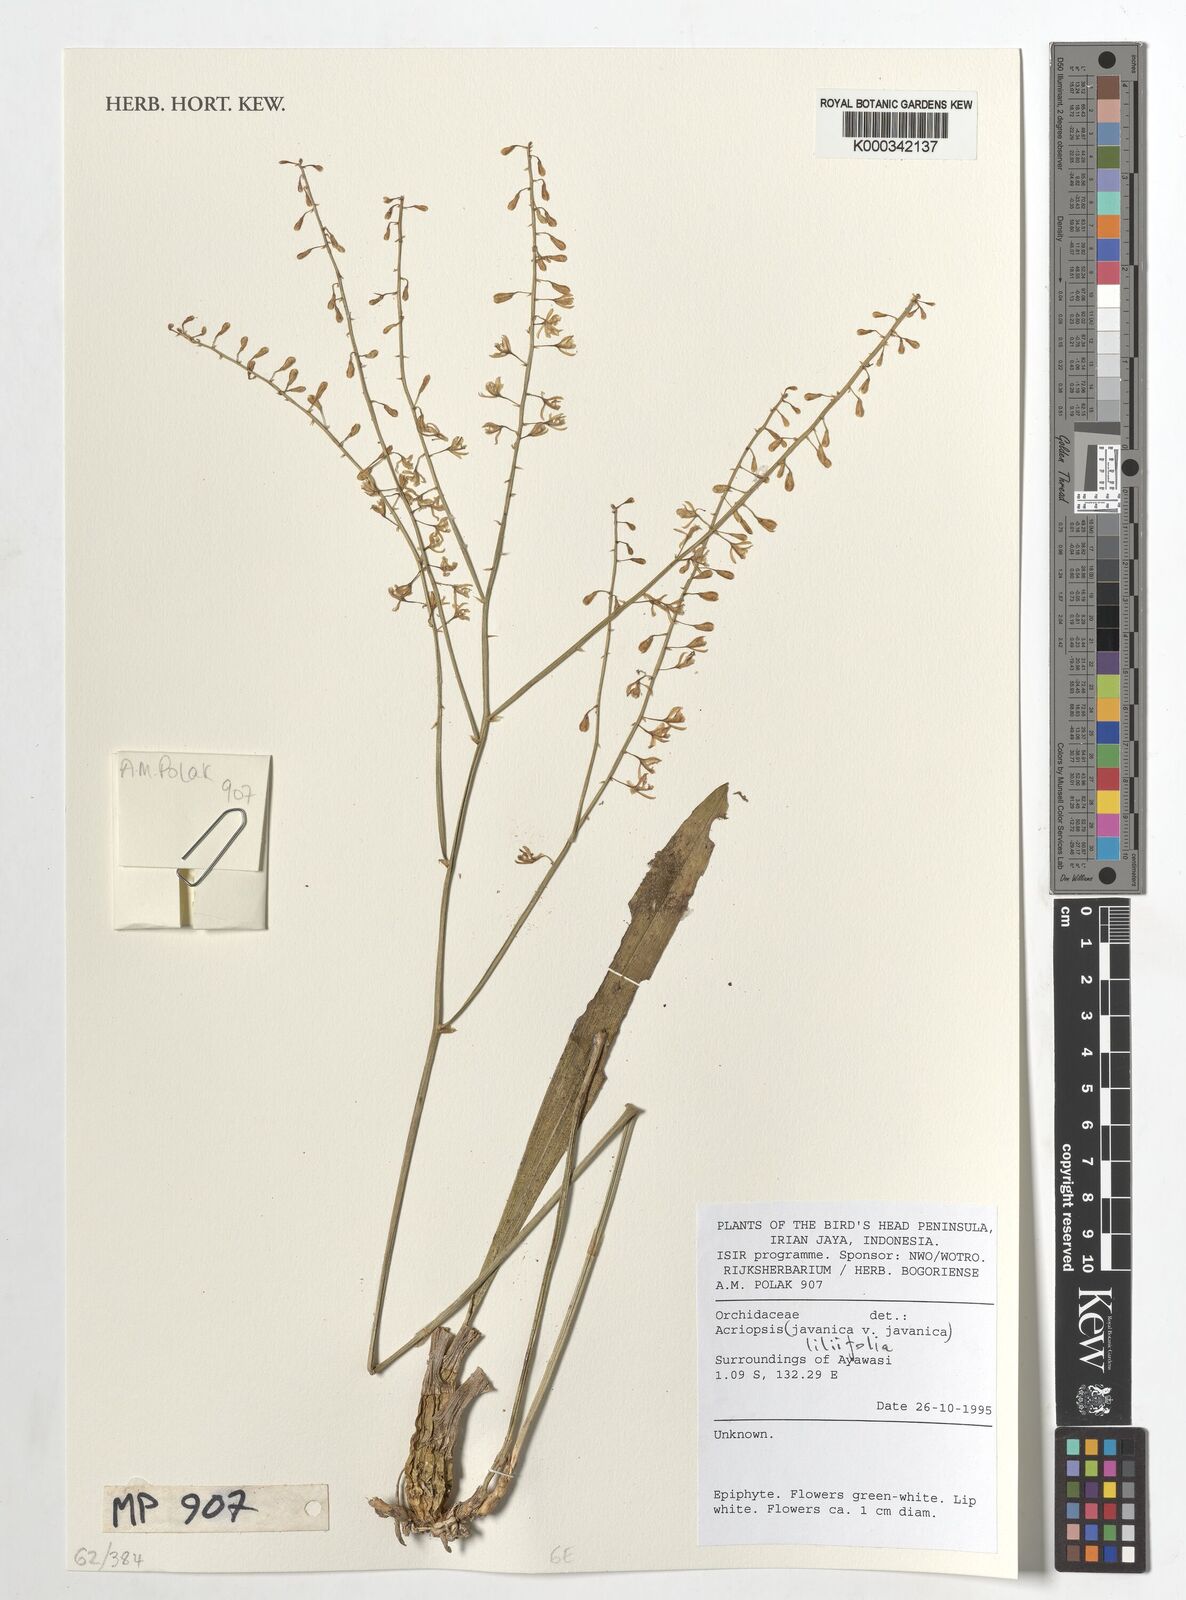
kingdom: Plantae
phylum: Tracheophyta
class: Liliopsida
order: Asparagales
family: Orchidaceae
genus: Acriopsis
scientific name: Acriopsis
